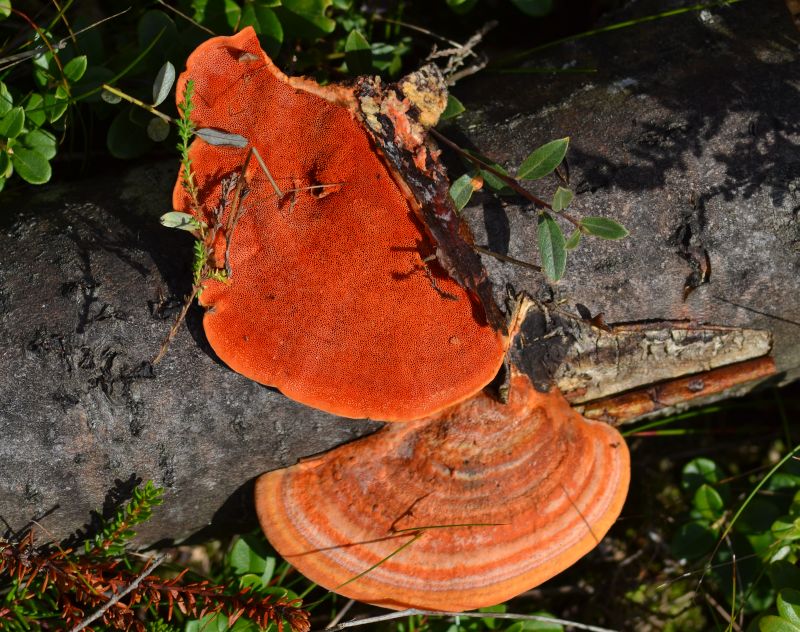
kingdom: Fungi
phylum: Basidiomycota
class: Agaricomycetes
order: Polyporales
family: Polyporaceae
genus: Trametes
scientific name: Trametes cinnabarina
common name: cinnoberporesvamp
